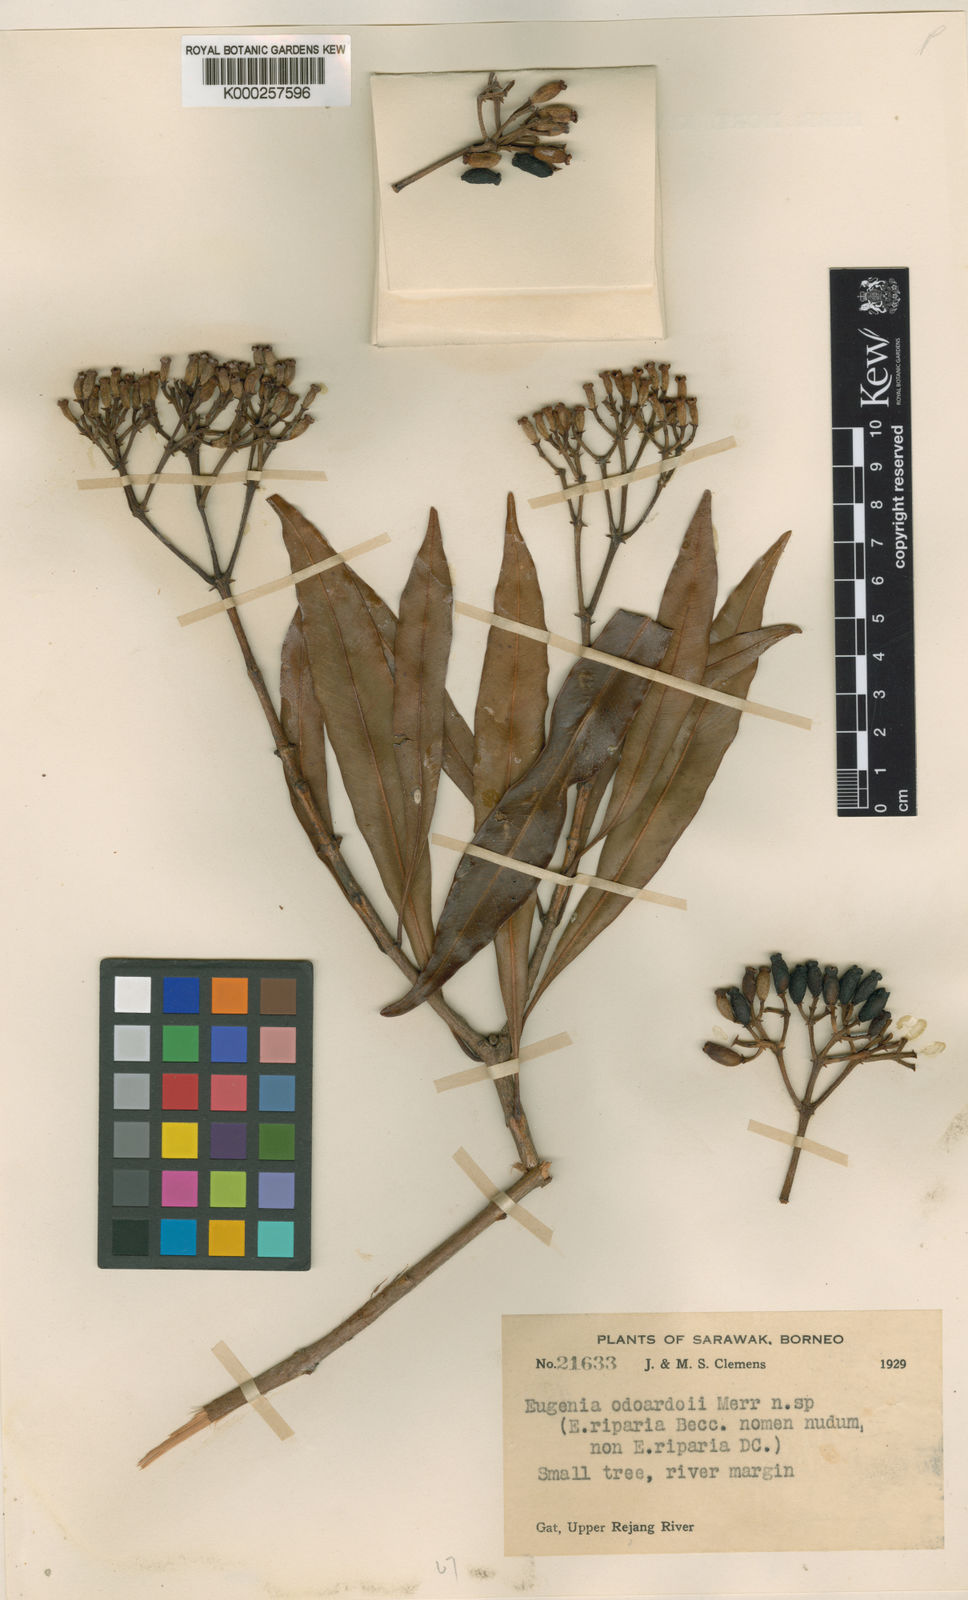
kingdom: Plantae
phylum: Tracheophyta
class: Magnoliopsida
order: Myrtales
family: Myrtaceae
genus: Syzygium
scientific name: Syzygium odoardoi
